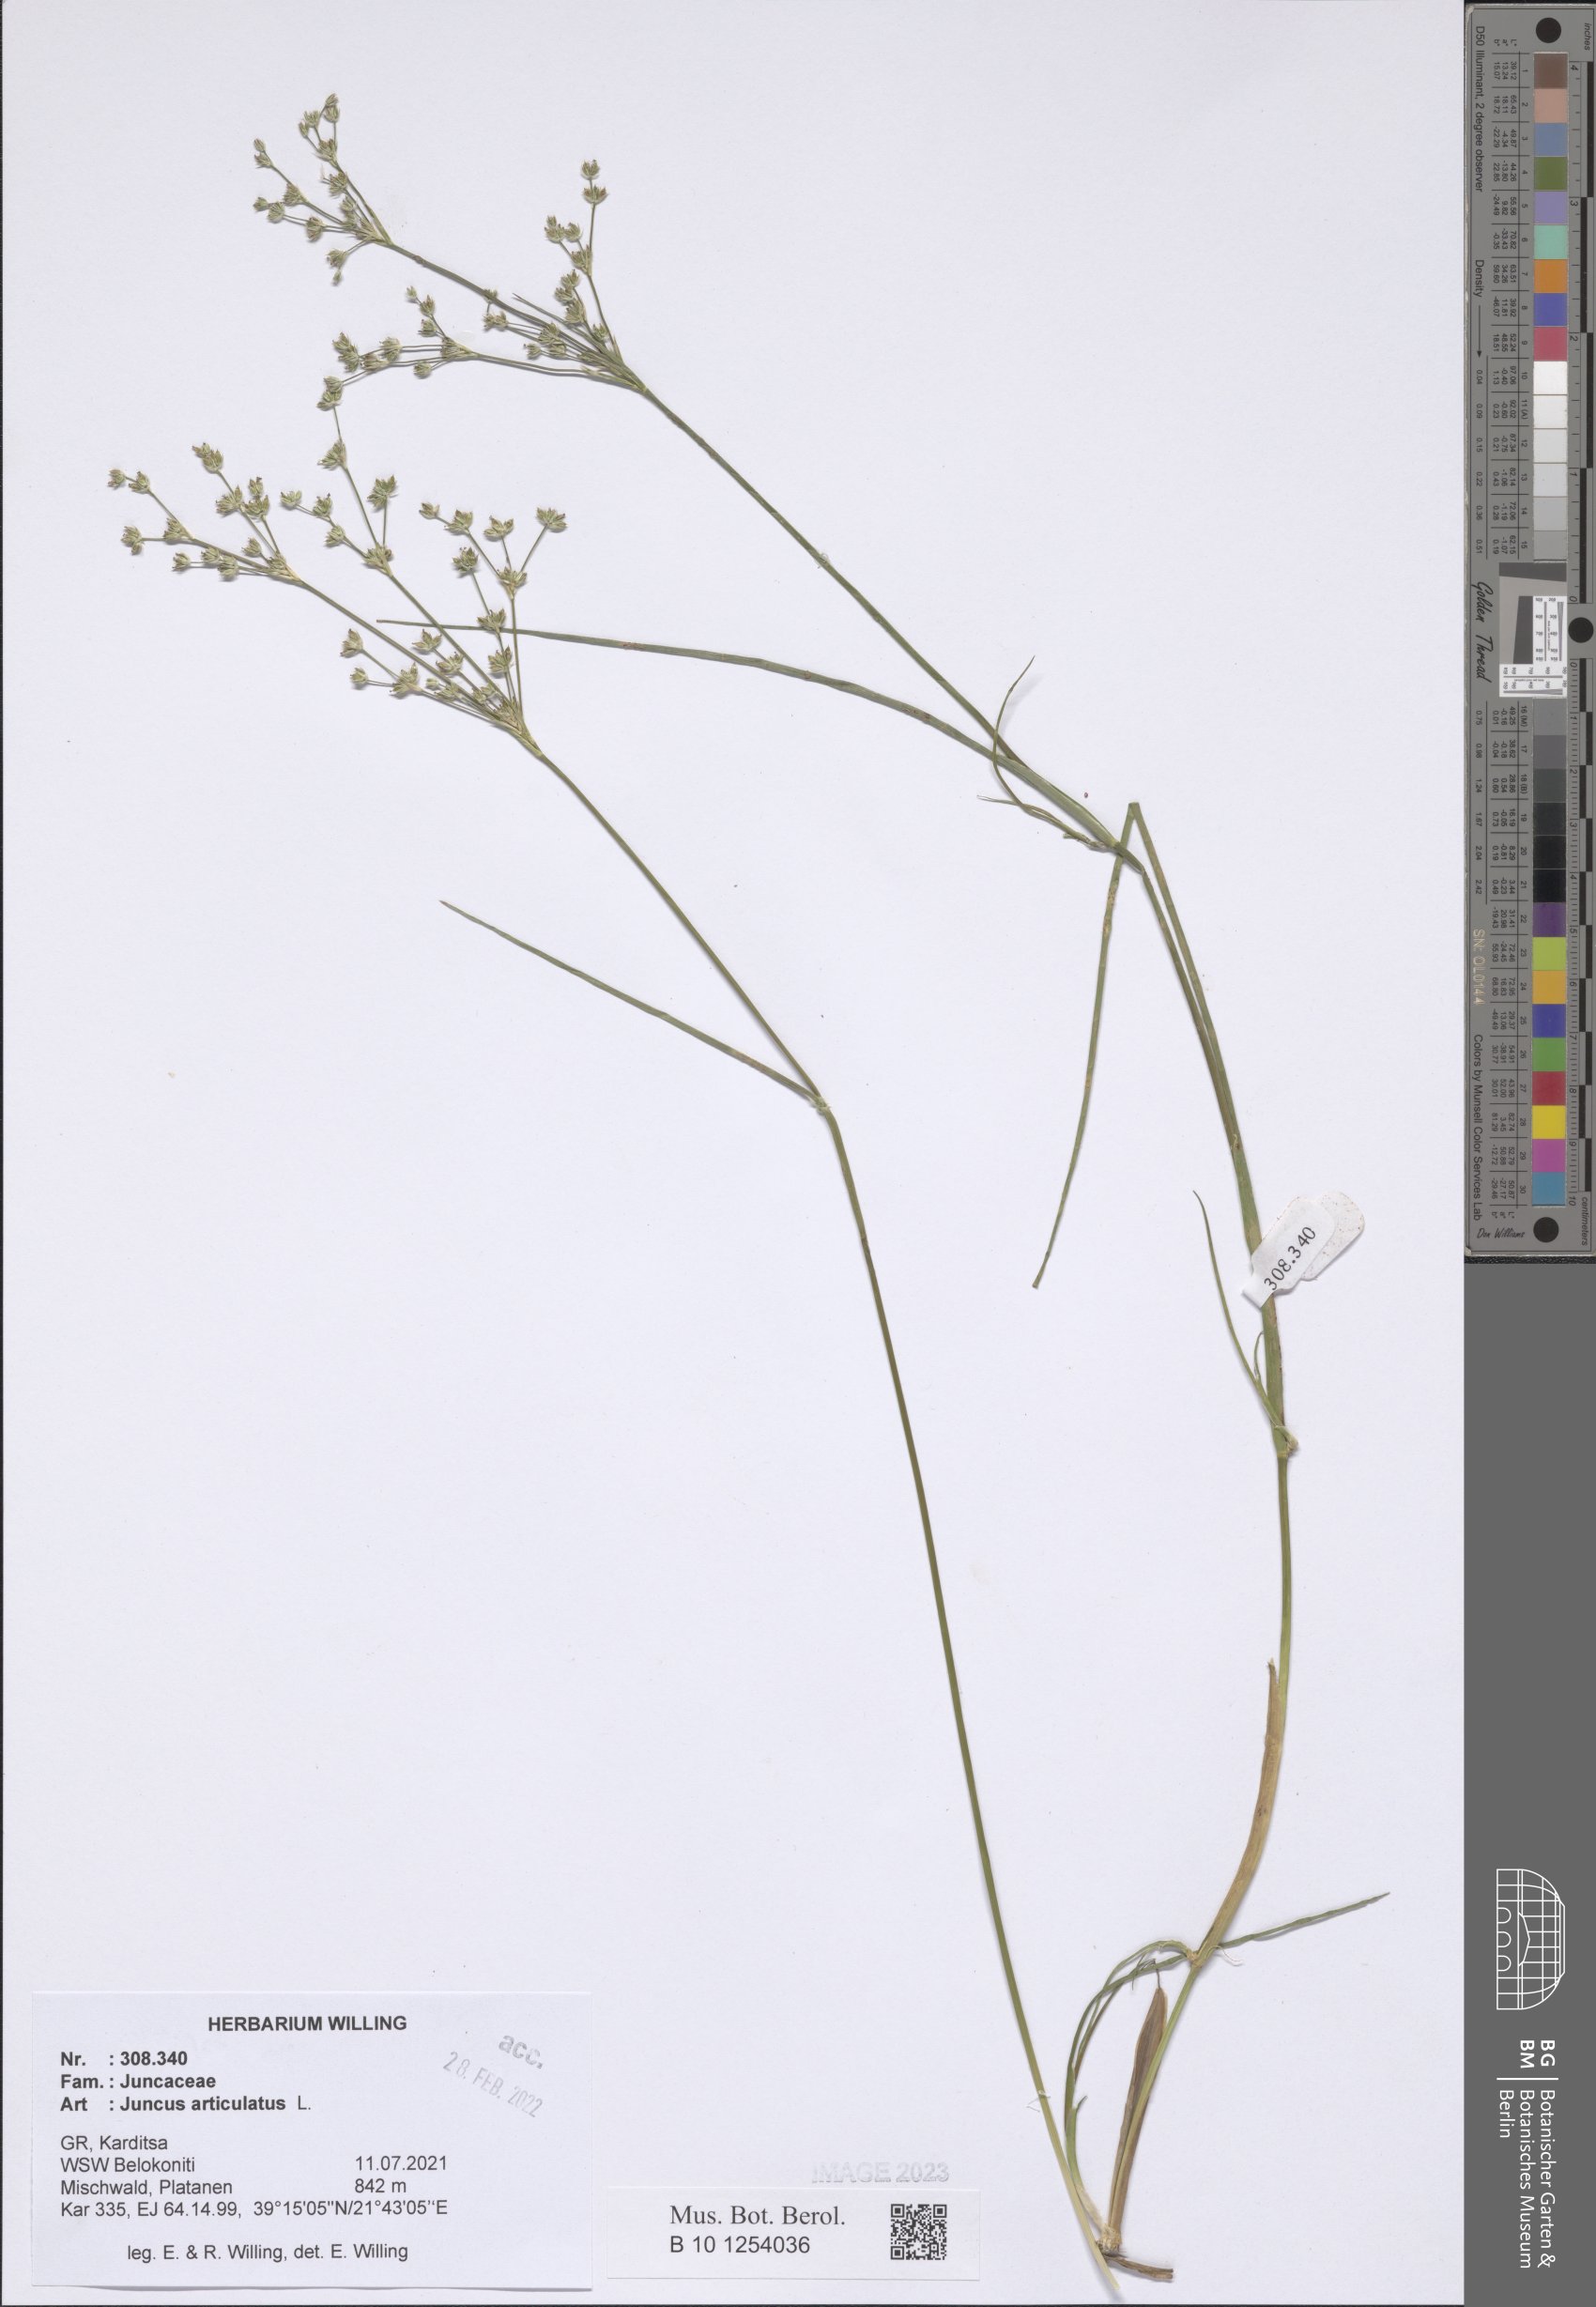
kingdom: Plantae
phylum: Tracheophyta
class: Liliopsida
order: Poales
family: Juncaceae
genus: Juncus
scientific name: Juncus articulatus
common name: Jointed rush
